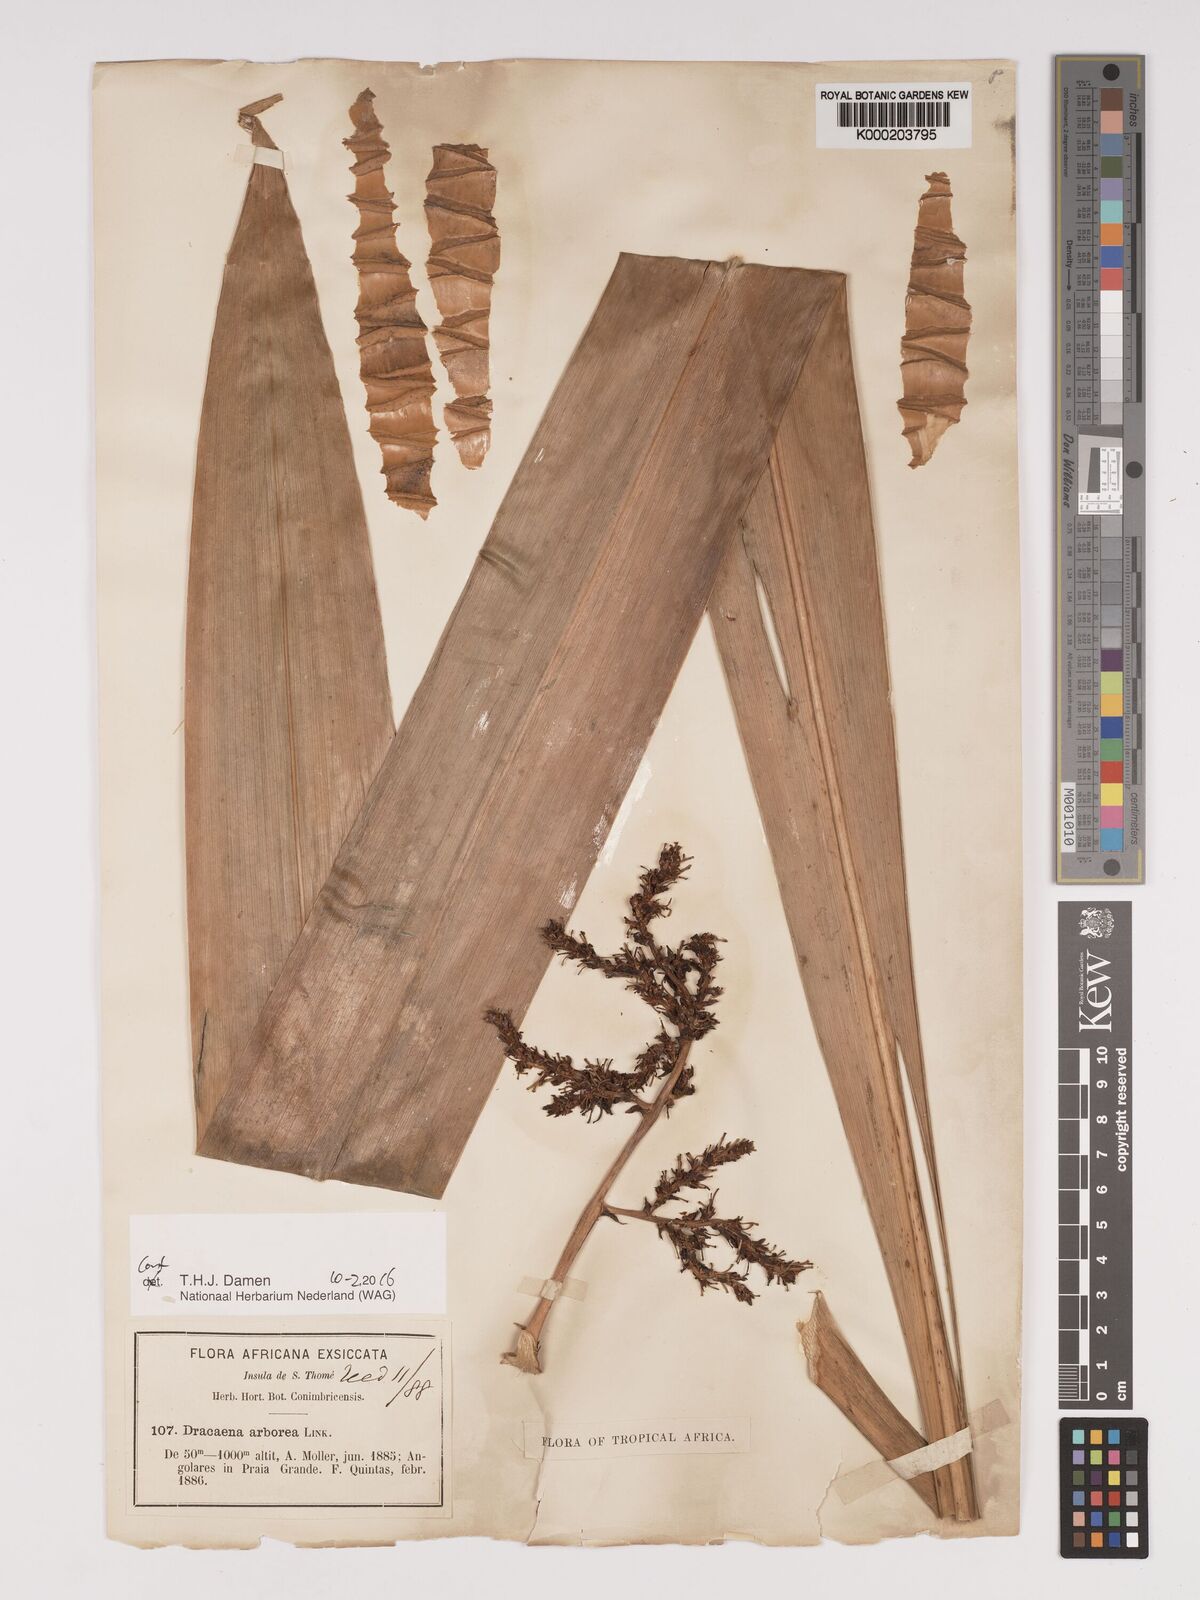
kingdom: Plantae
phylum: Tracheophyta
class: Liliopsida
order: Asparagales
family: Asparagaceae
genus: Dracaena
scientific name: Dracaena arborea
